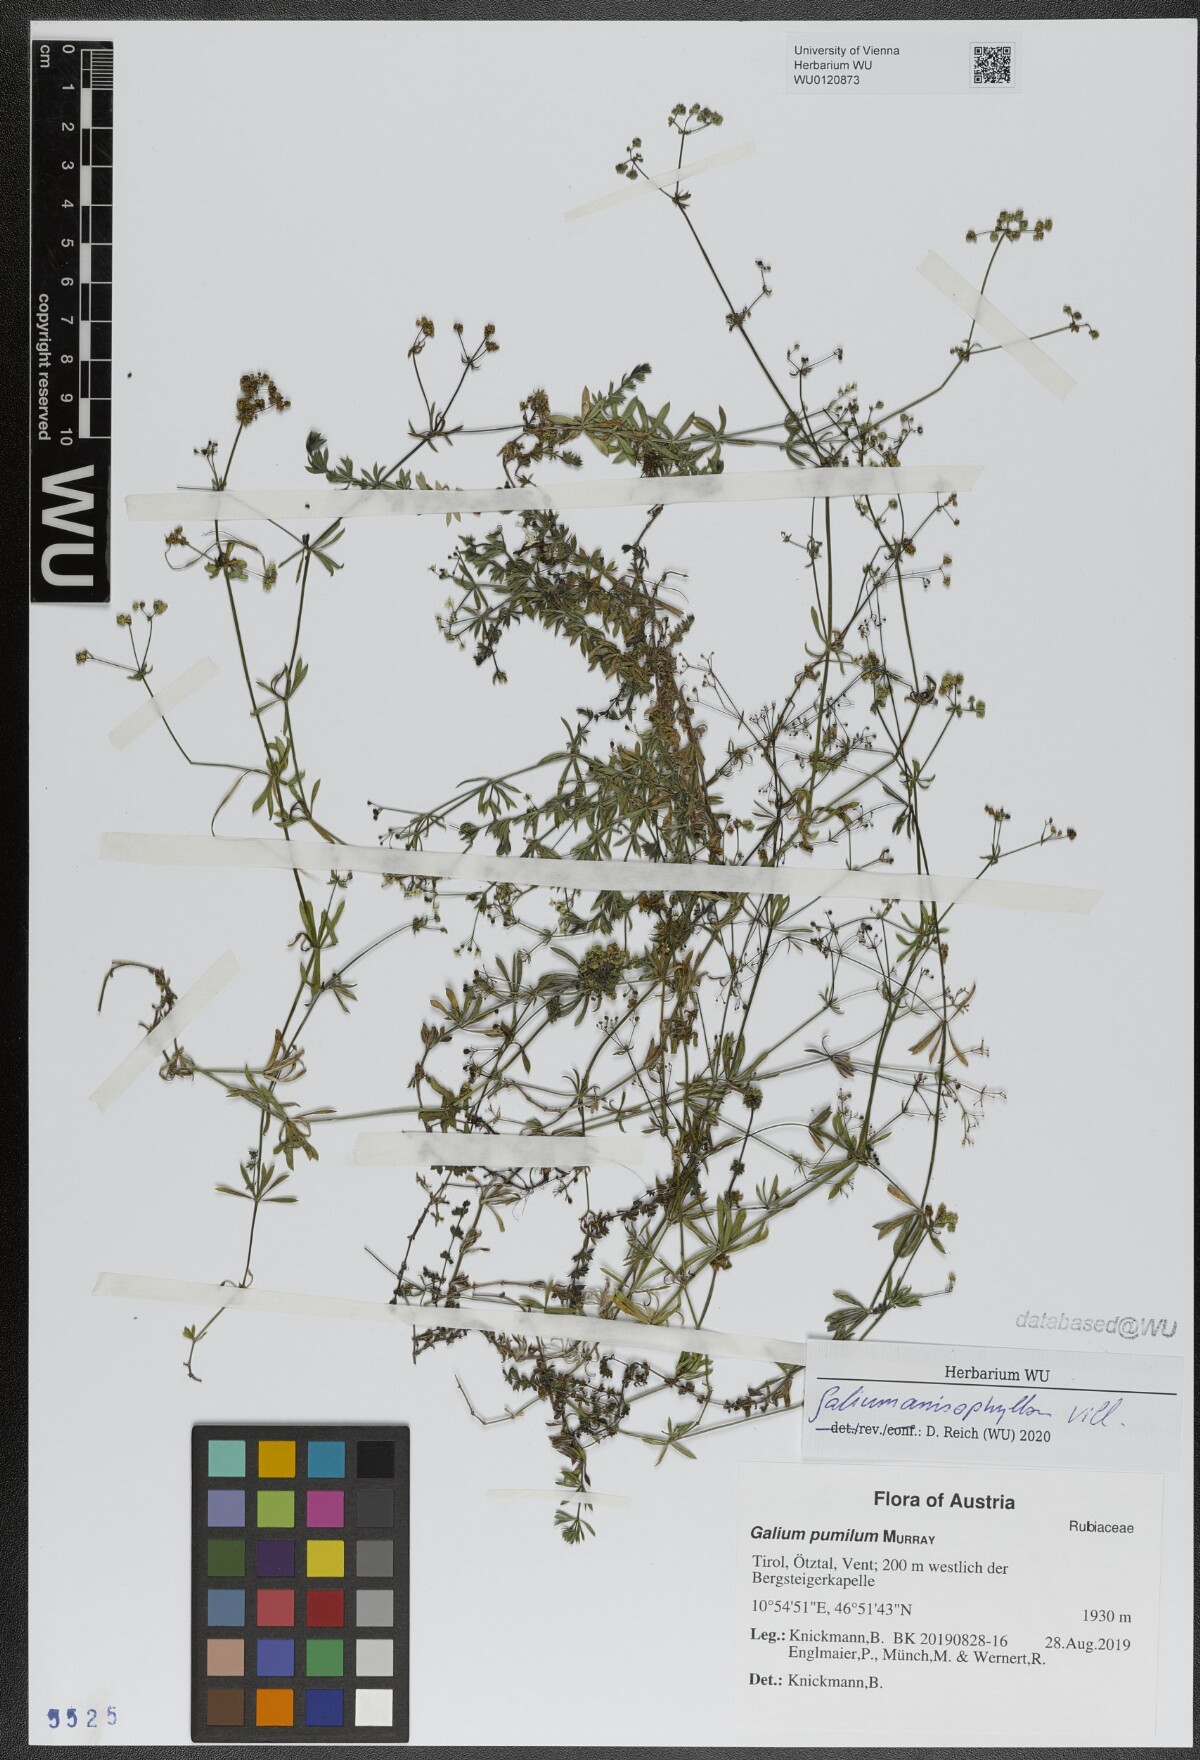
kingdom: Plantae
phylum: Tracheophyta
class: Magnoliopsida
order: Gentianales
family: Rubiaceae
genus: Galium
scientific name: Galium anisophyllon
